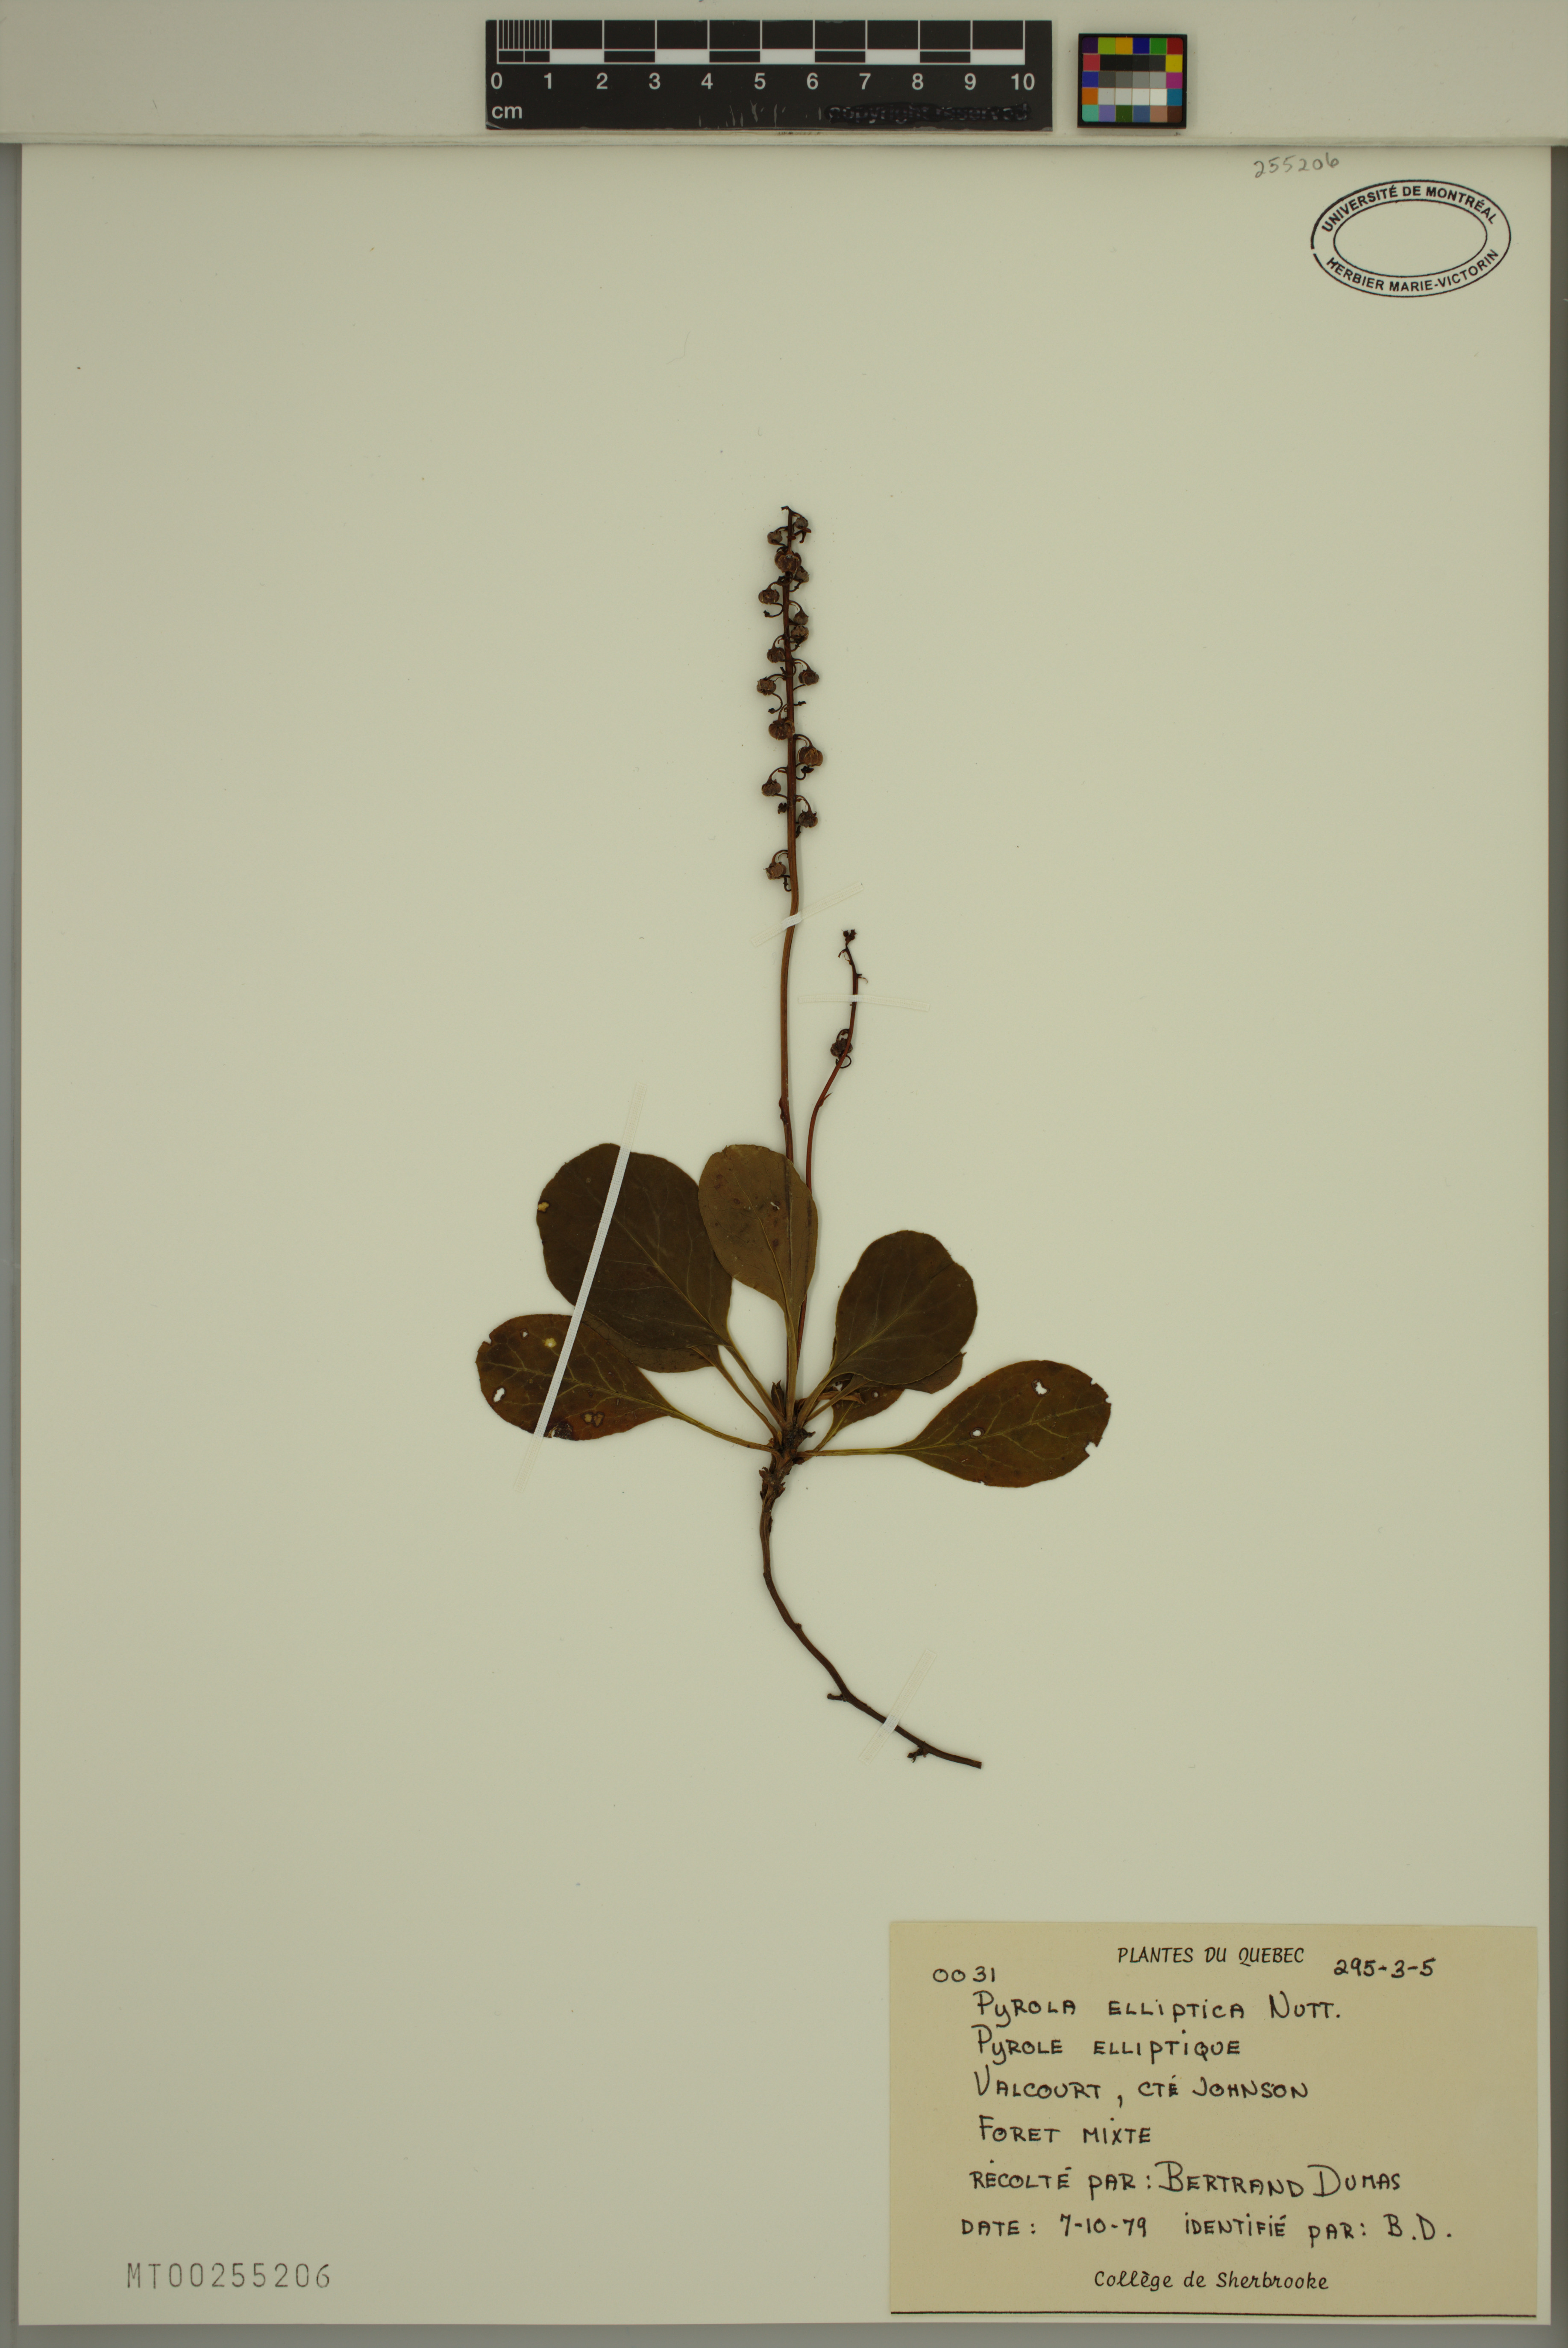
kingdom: Plantae
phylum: Tracheophyta
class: Magnoliopsida
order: Ericales
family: Ericaceae
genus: Pyrola
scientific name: Pyrola elliptica
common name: Shinleaf
